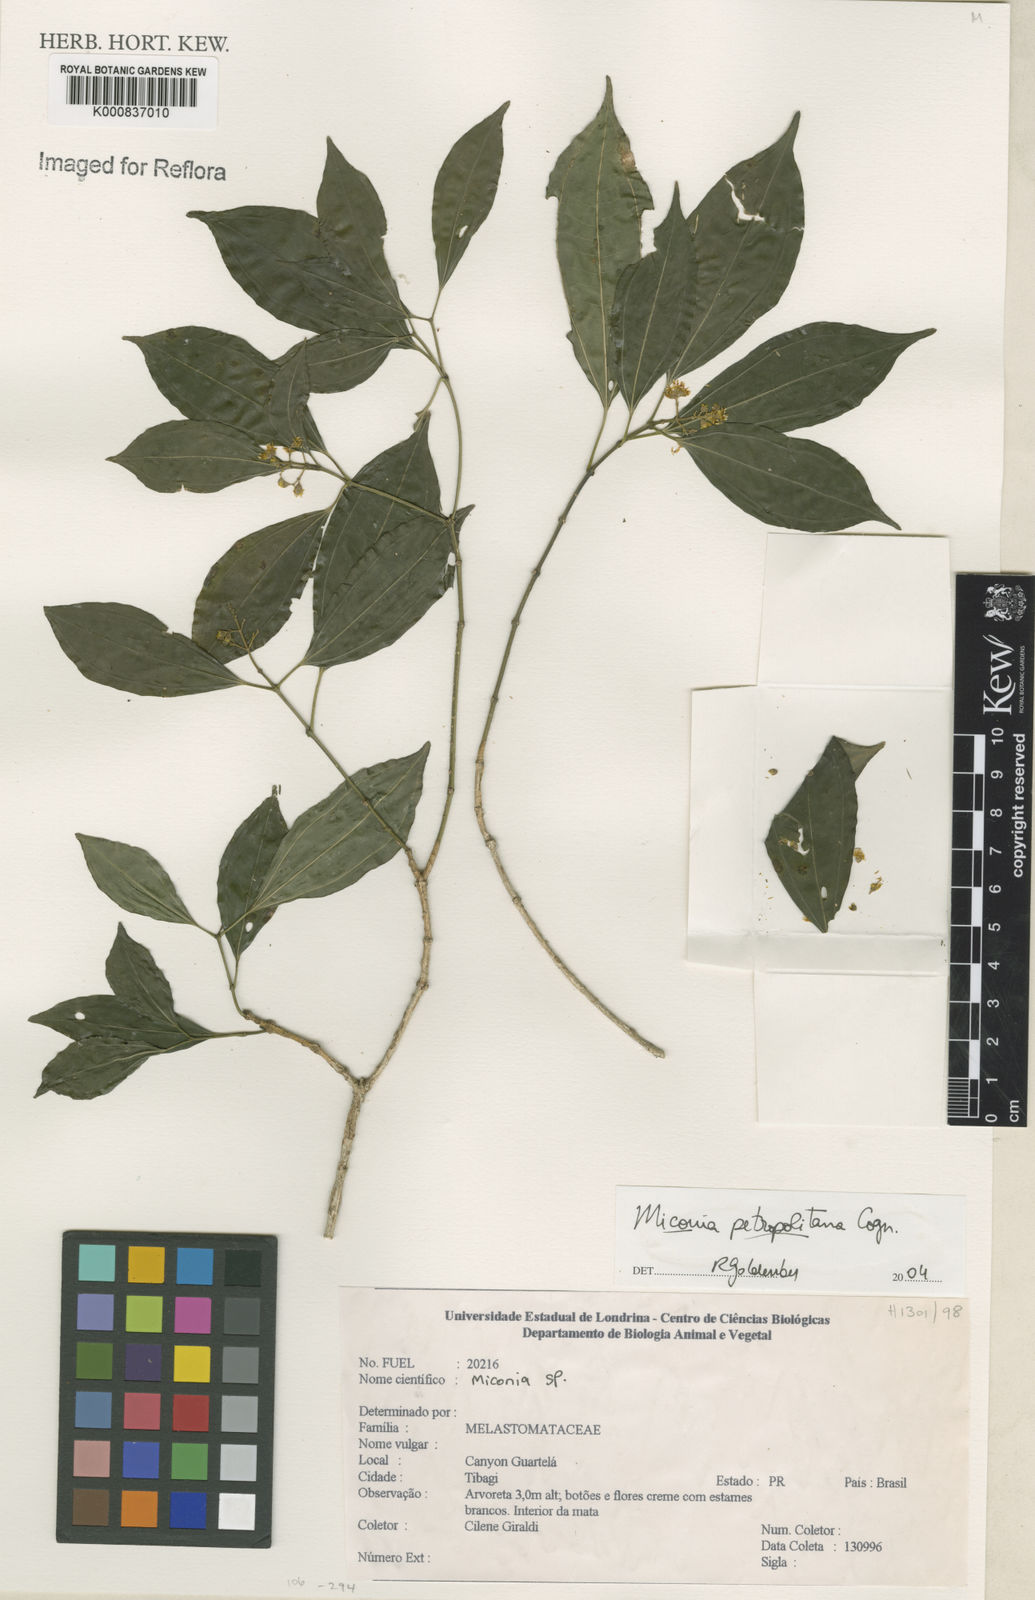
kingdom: Plantae
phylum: Tracheophyta
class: Magnoliopsida
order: Myrtales
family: Melastomataceae
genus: Miconia
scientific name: Miconia petropolitana
